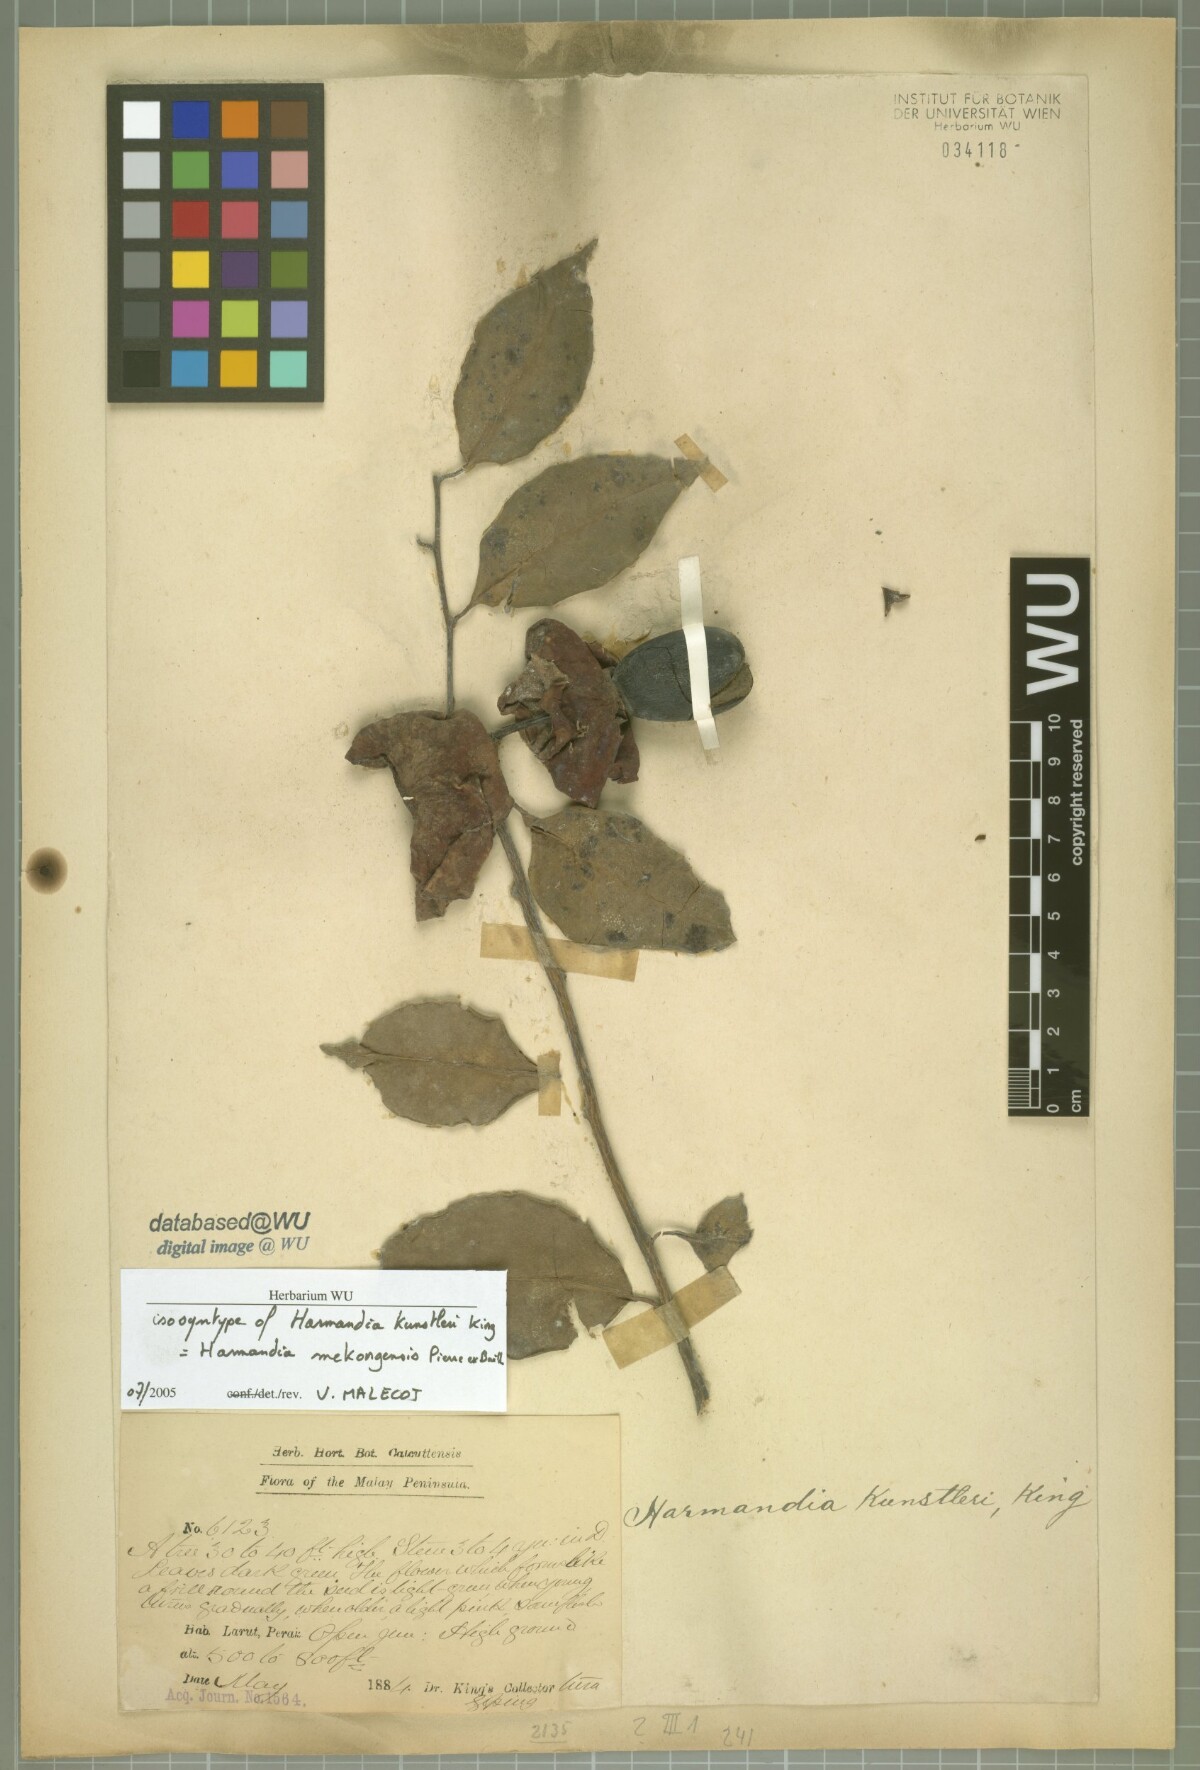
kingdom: Plantae
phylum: Tracheophyta
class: Magnoliopsida
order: Santalales
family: Aptandraceae
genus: Harmandia
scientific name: Harmandia mekongensis
